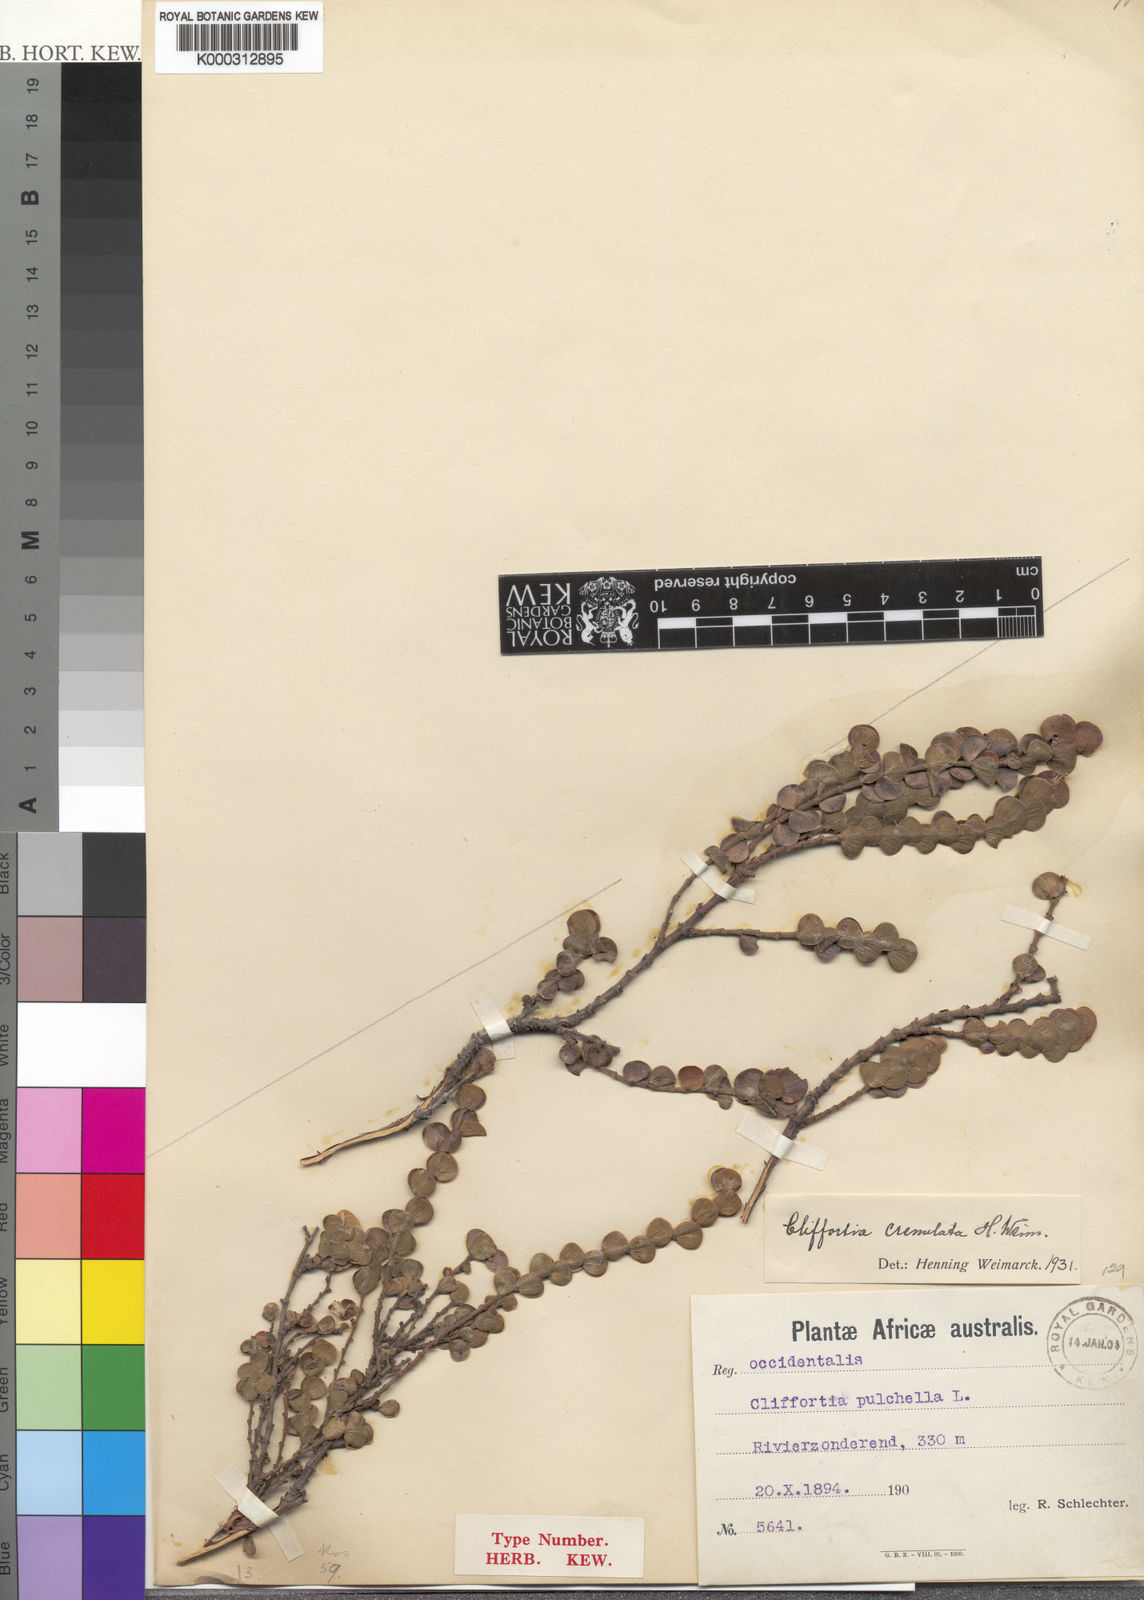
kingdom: Plantae
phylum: Tracheophyta
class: Magnoliopsida
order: Rosales
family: Rosaceae
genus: Cliffortia
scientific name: Cliffortia crenulata
